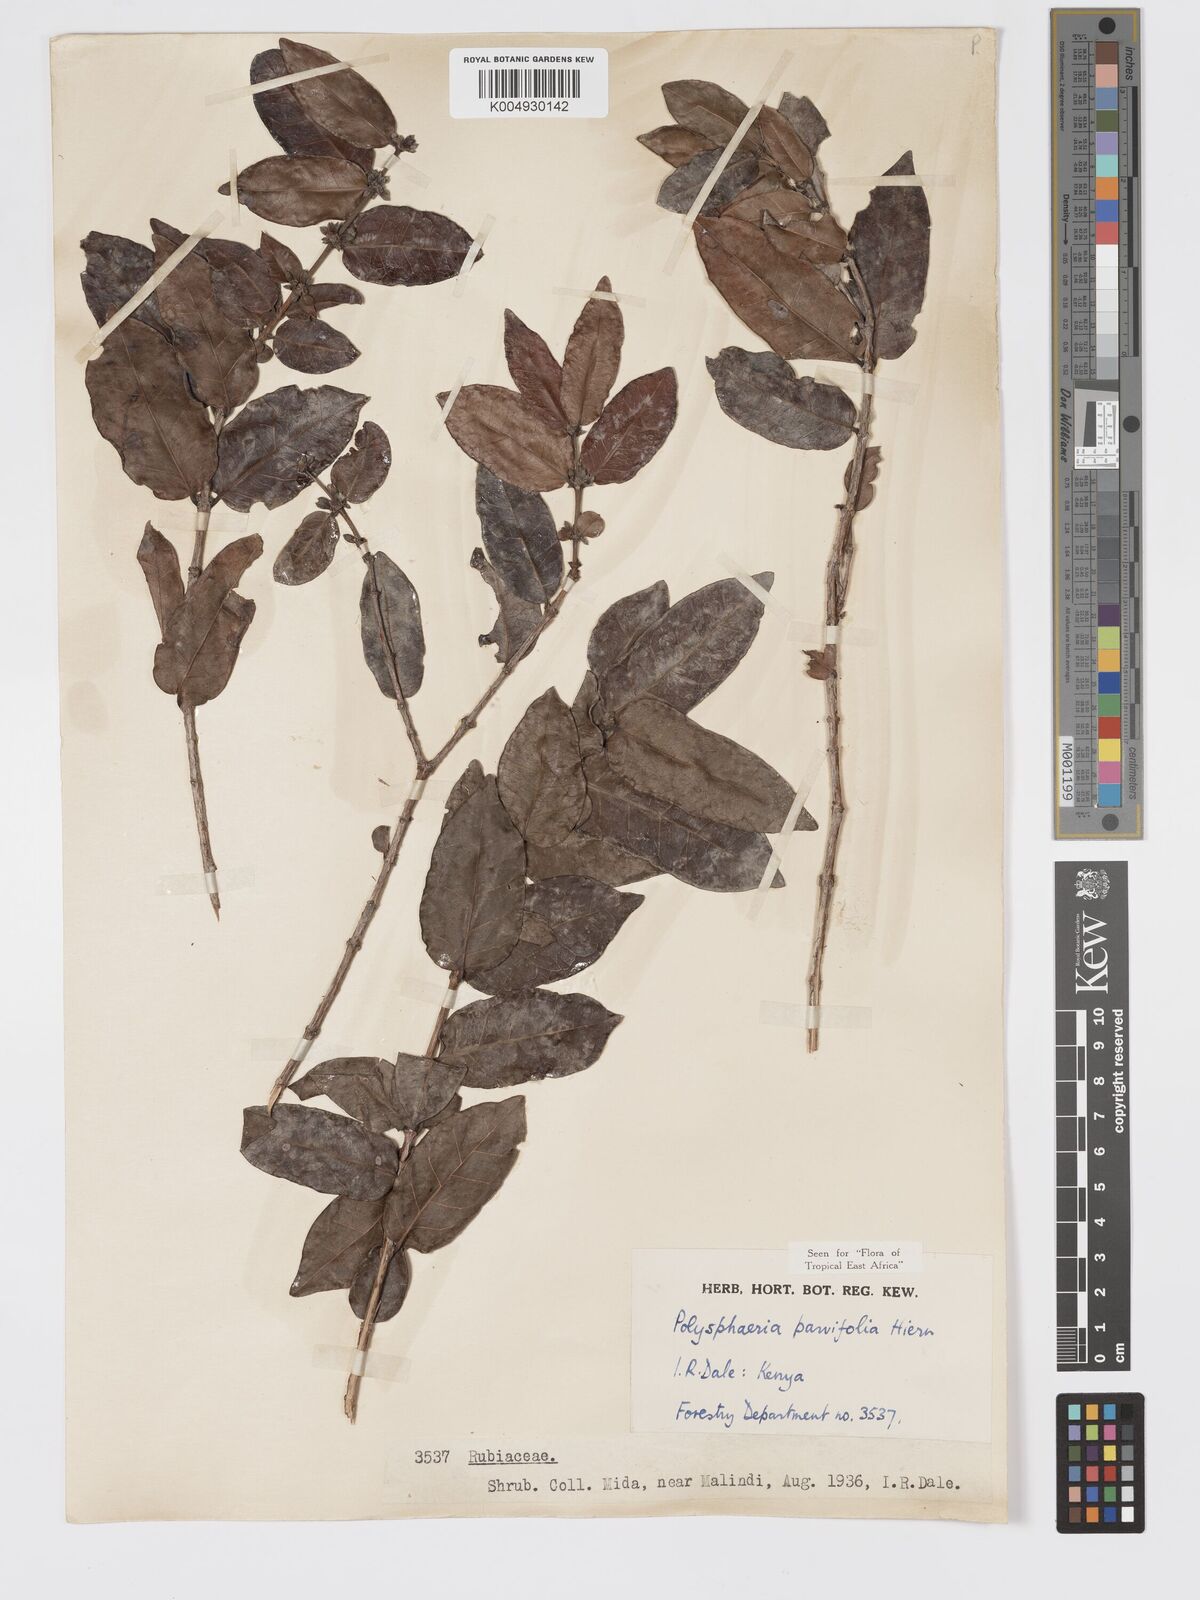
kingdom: Plantae
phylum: Tracheophyta
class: Magnoliopsida
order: Gentianales
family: Rubiaceae
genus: Polysphaeria
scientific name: Polysphaeria parvifolia
